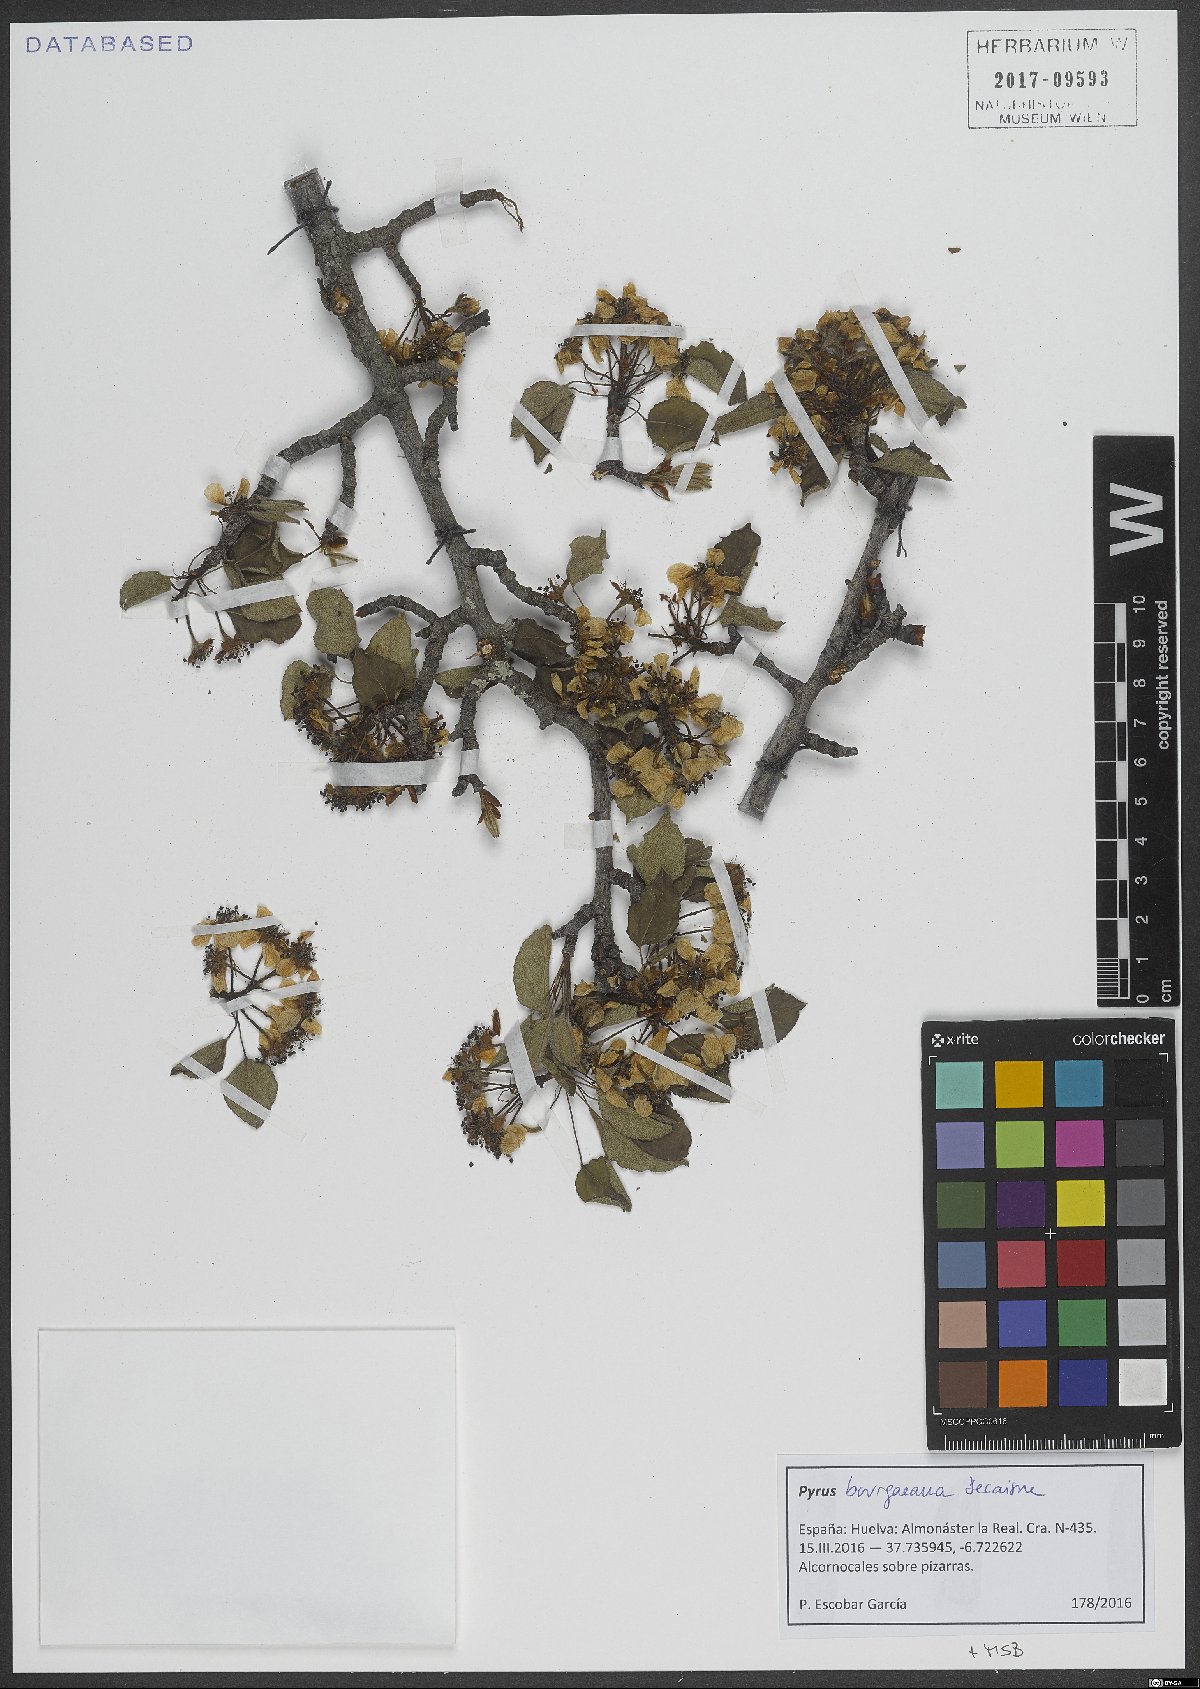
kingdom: Plantae
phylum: Tracheophyta
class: Magnoliopsida
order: Rosales
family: Rosaceae
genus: Pyrus
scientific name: Pyrus bourgaeana
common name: Iberian pear
